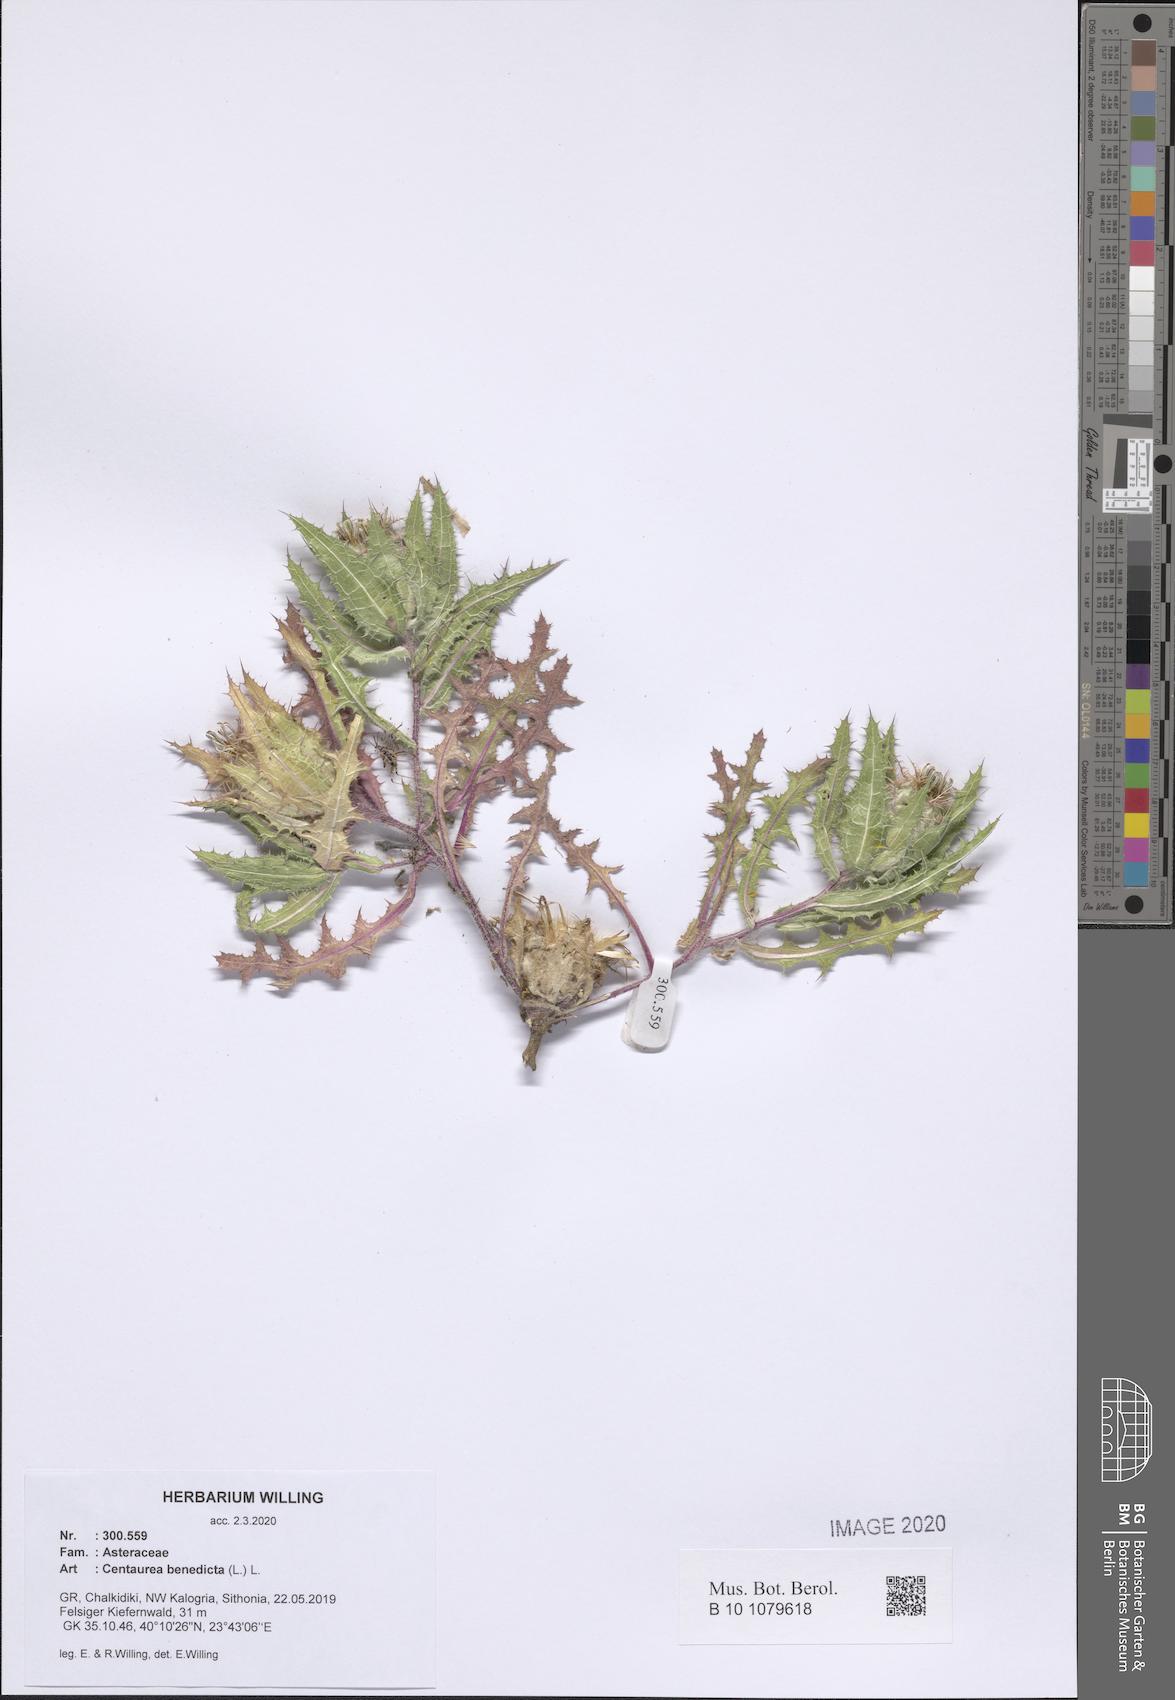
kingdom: Plantae
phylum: Tracheophyta
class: Magnoliopsida
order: Asterales
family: Asteraceae
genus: Centaurea
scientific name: Centaurea benedicta
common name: Blessed thistle
